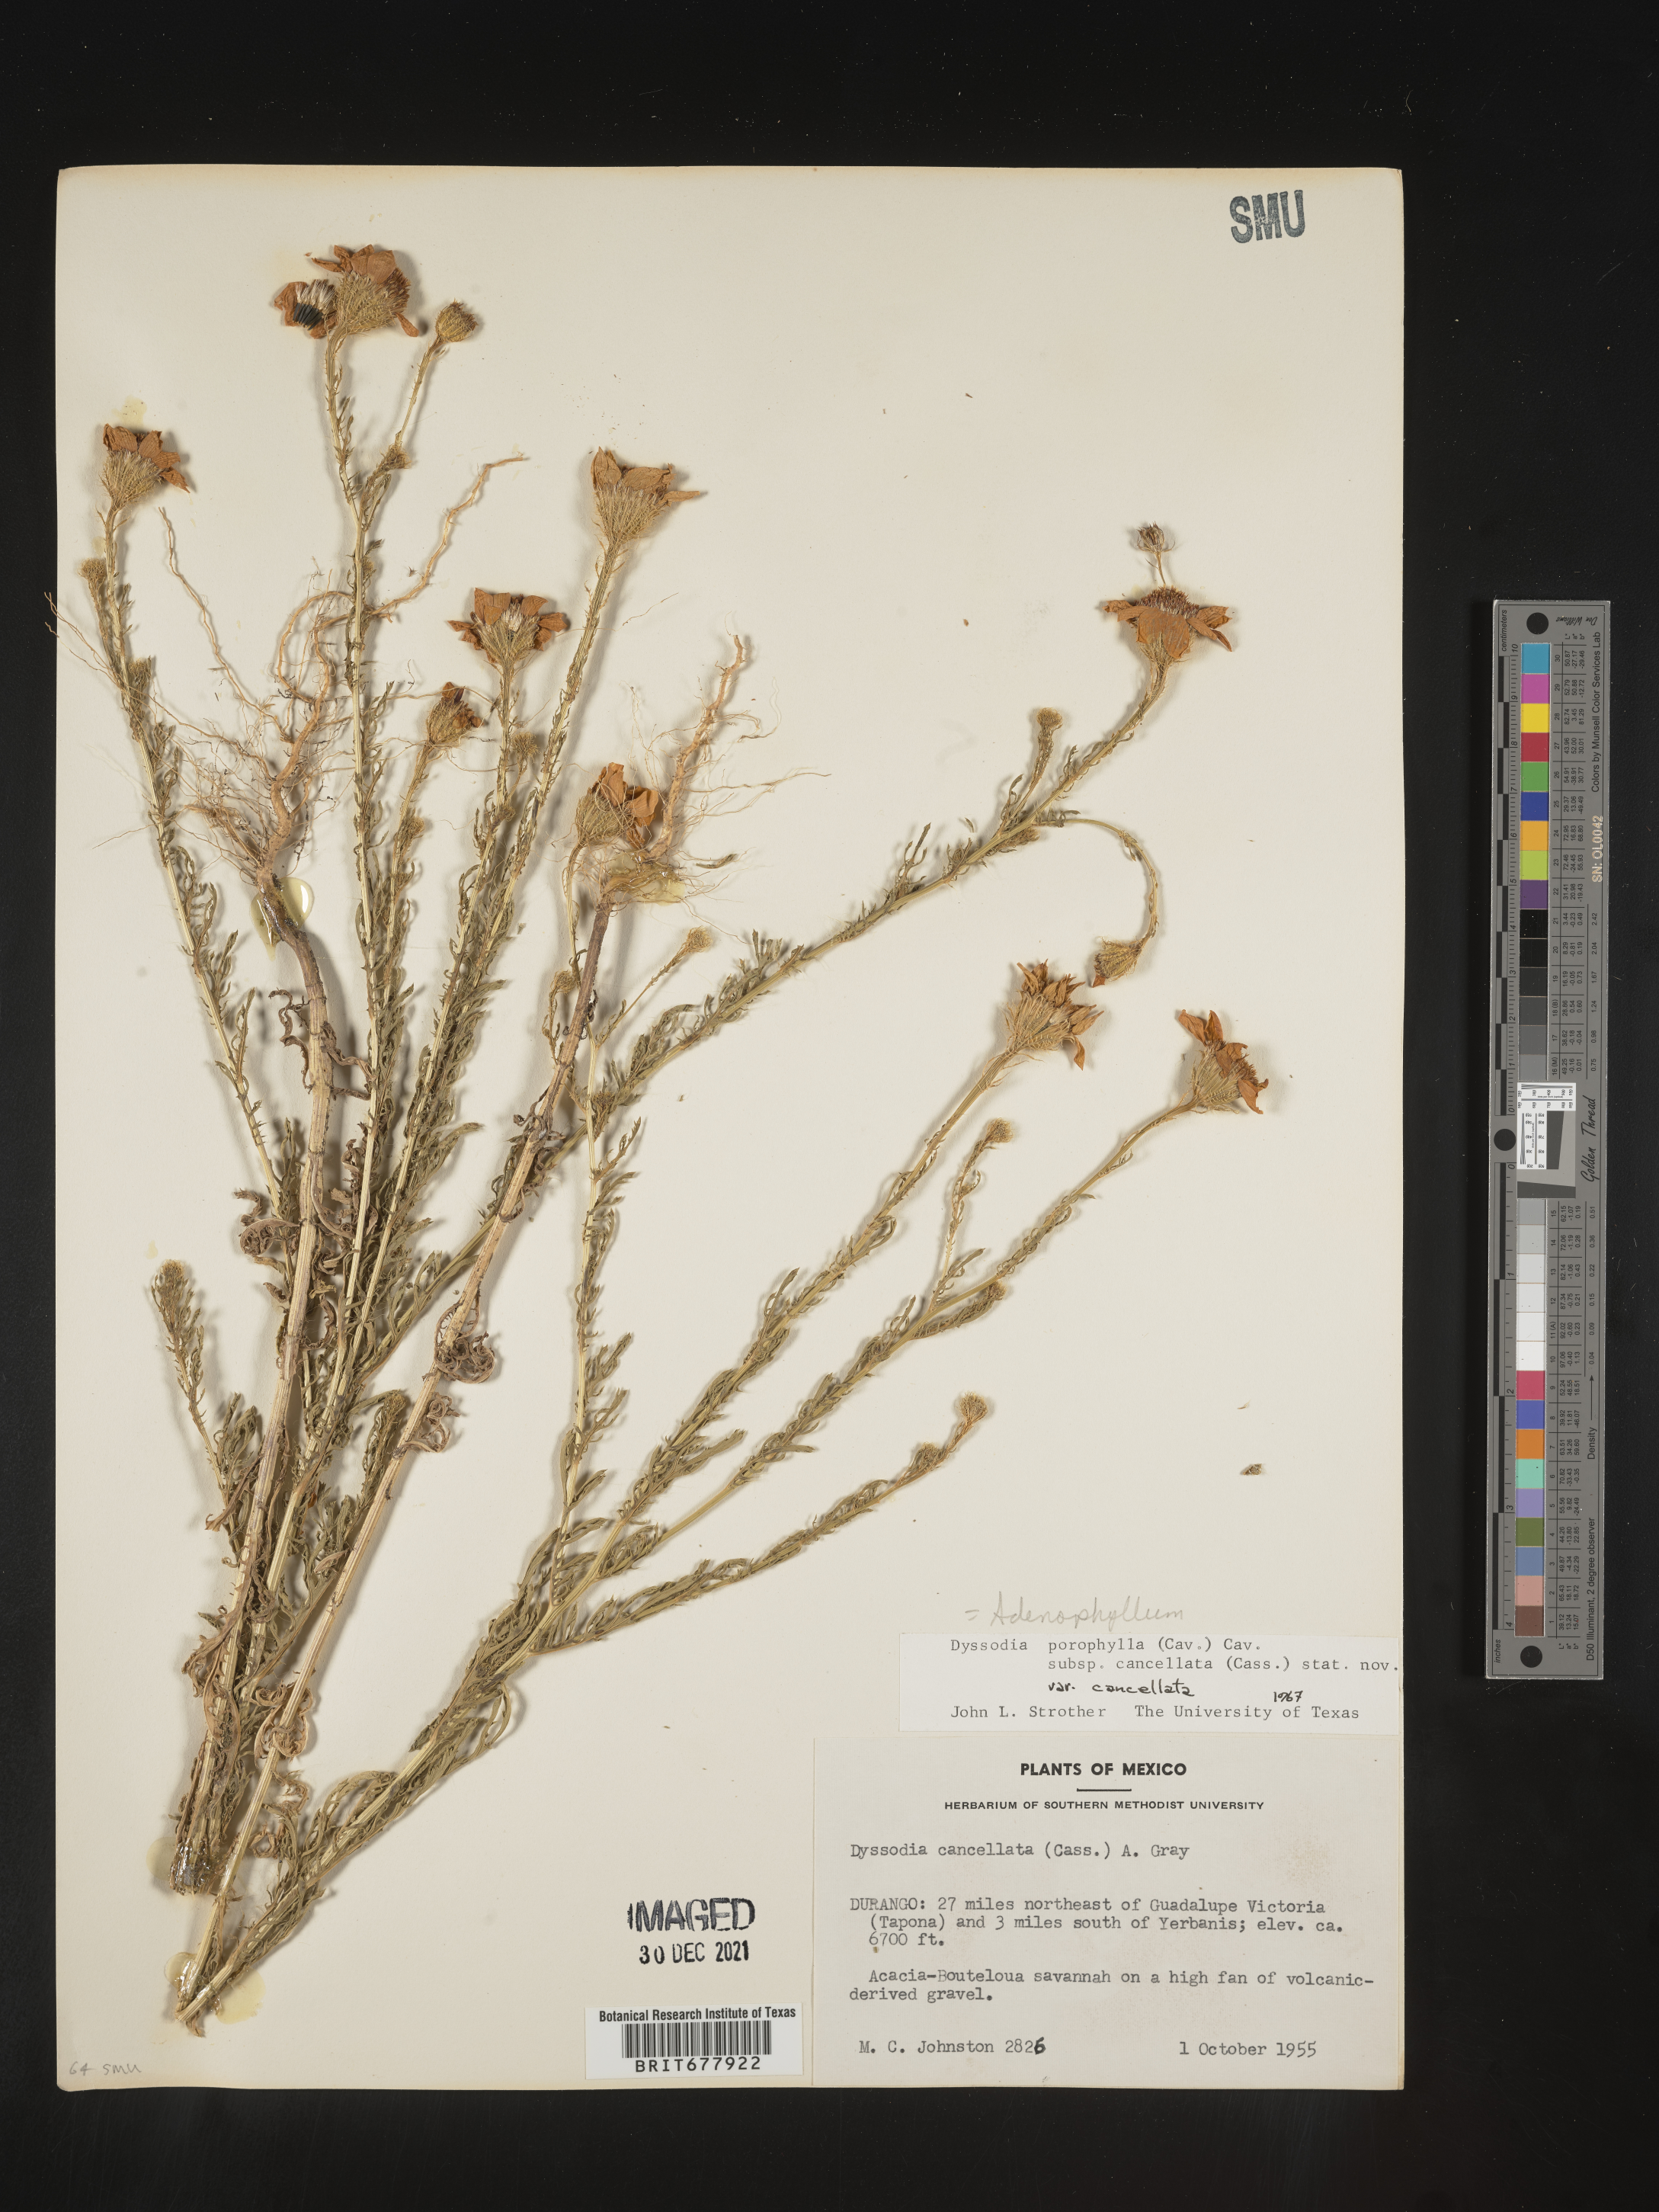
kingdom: Plantae
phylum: Tracheophyta
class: Magnoliopsida
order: Asterales
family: Asteraceae
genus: Adenophyllum
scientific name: Adenophyllum porophyllum
